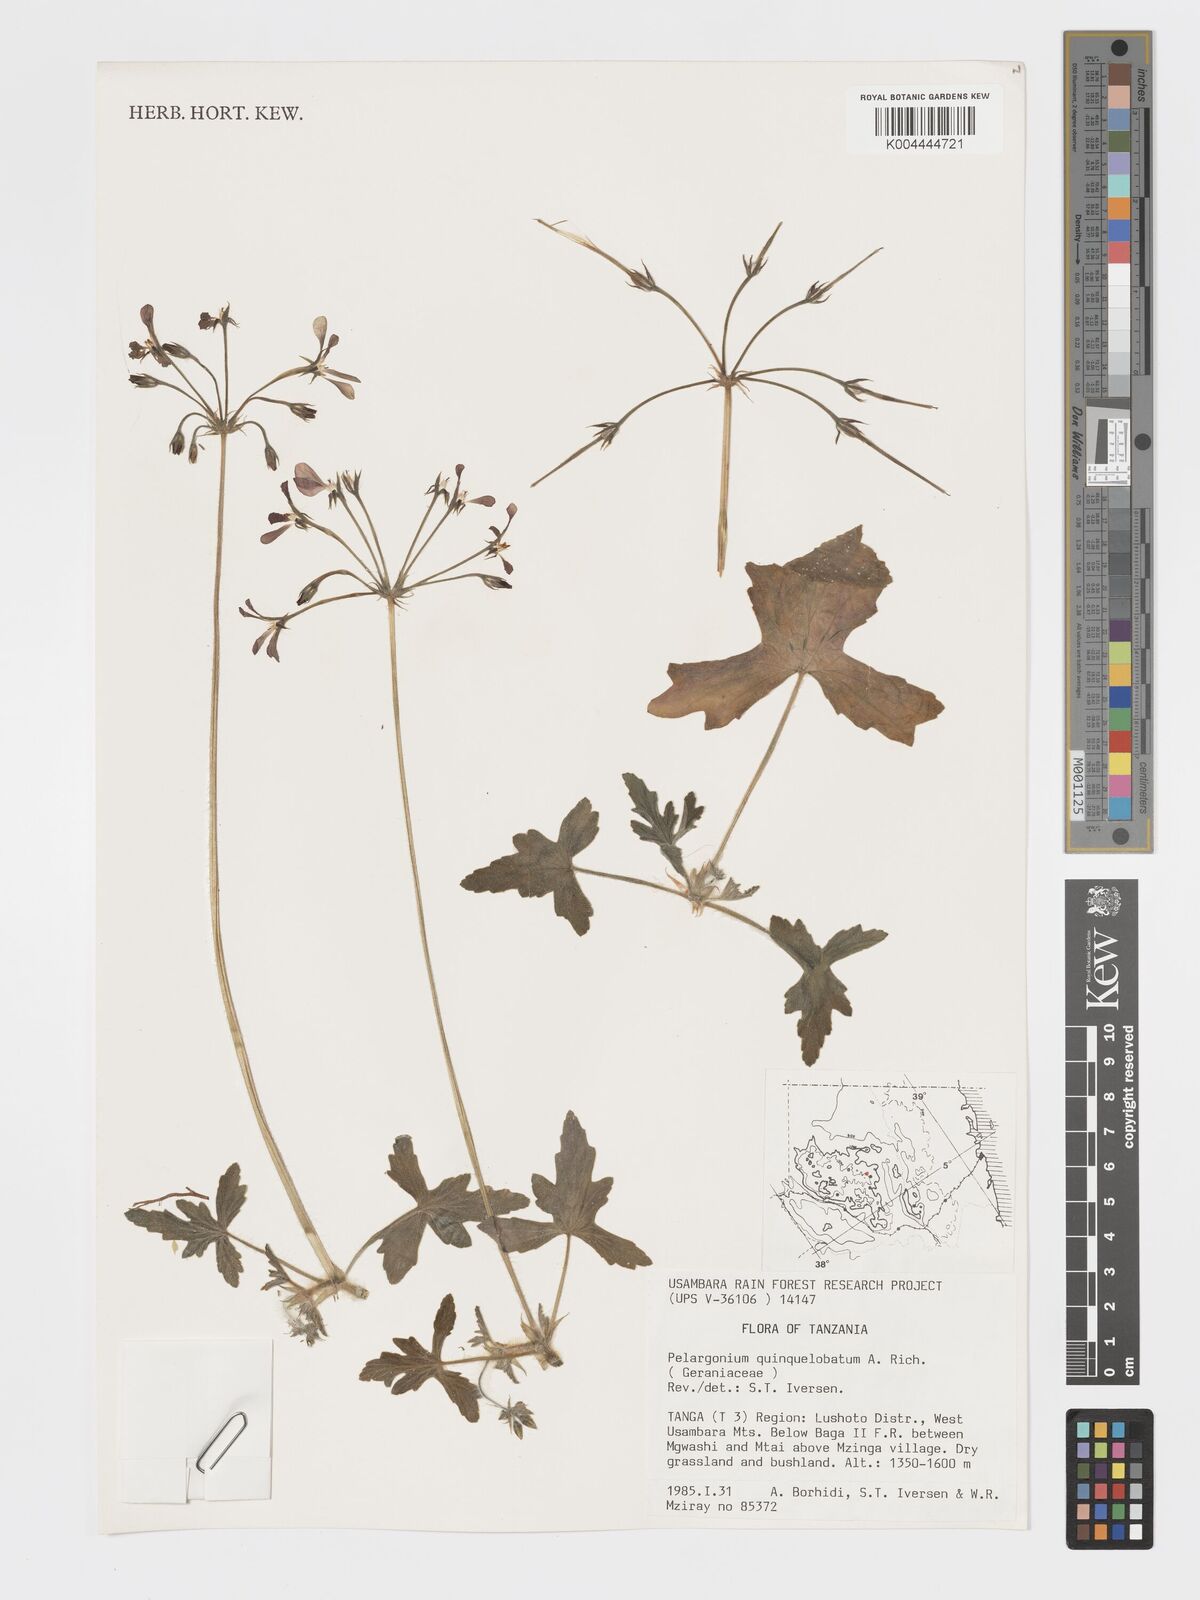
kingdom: Plantae
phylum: Tracheophyta
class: Magnoliopsida
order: Geraniales
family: Geraniaceae
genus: Pelargonium
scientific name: Pelargonium quinquelobatum
